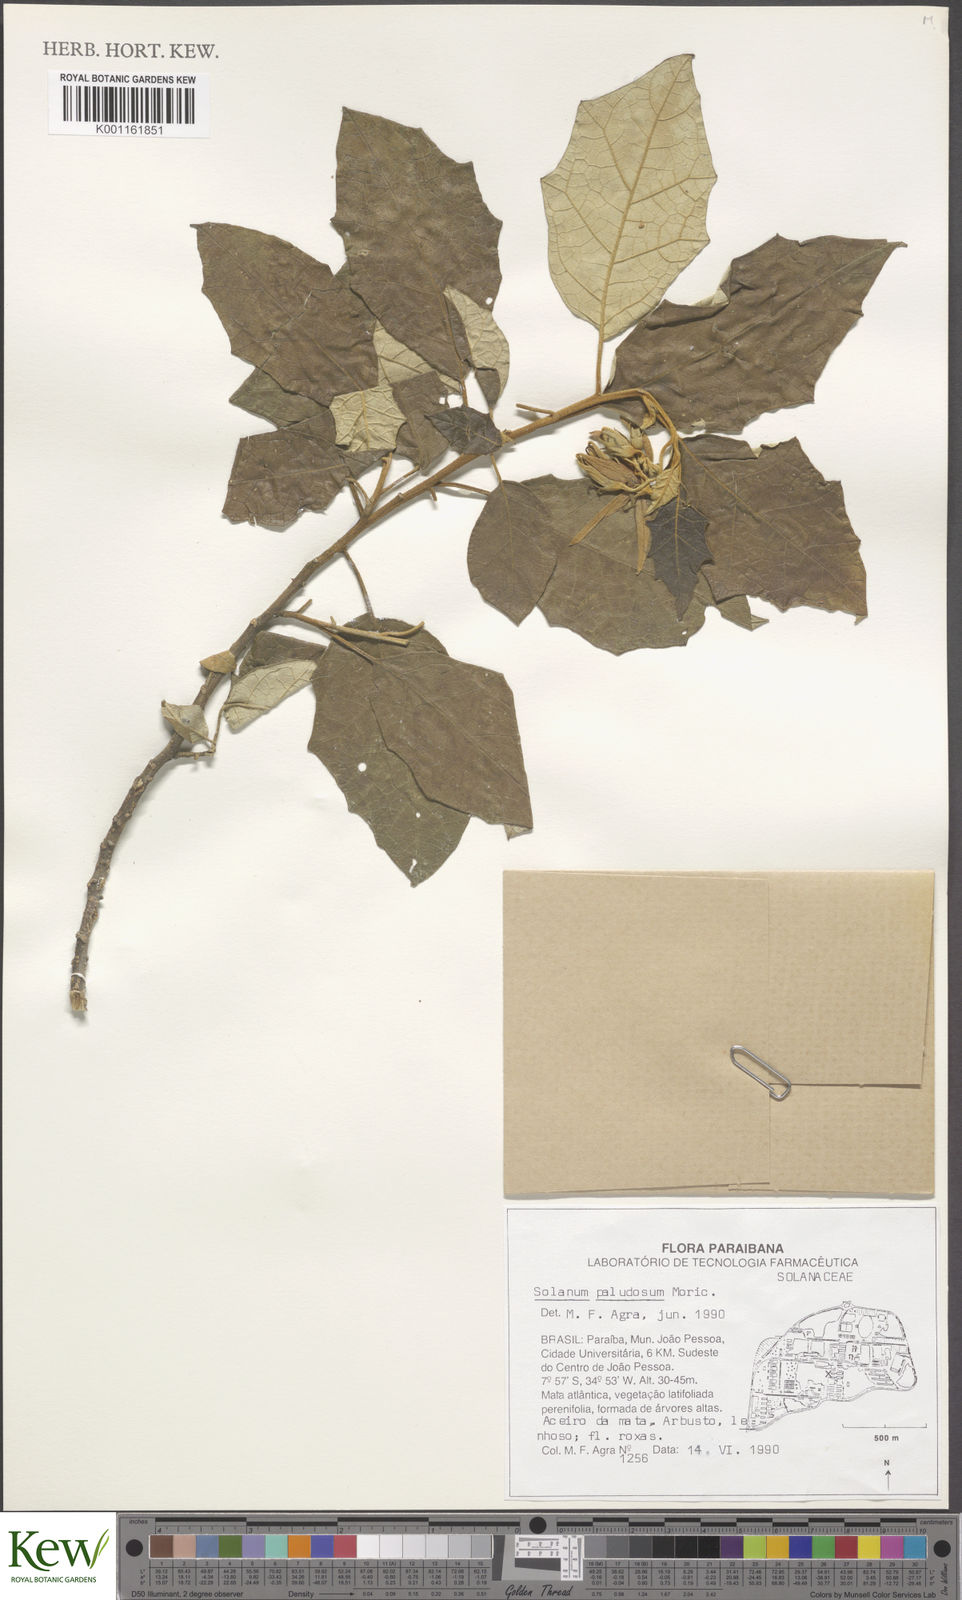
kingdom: Plantae
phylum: Tracheophyta
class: Magnoliopsida
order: Solanales
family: Solanaceae
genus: Solanum
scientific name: Solanum paludosum
